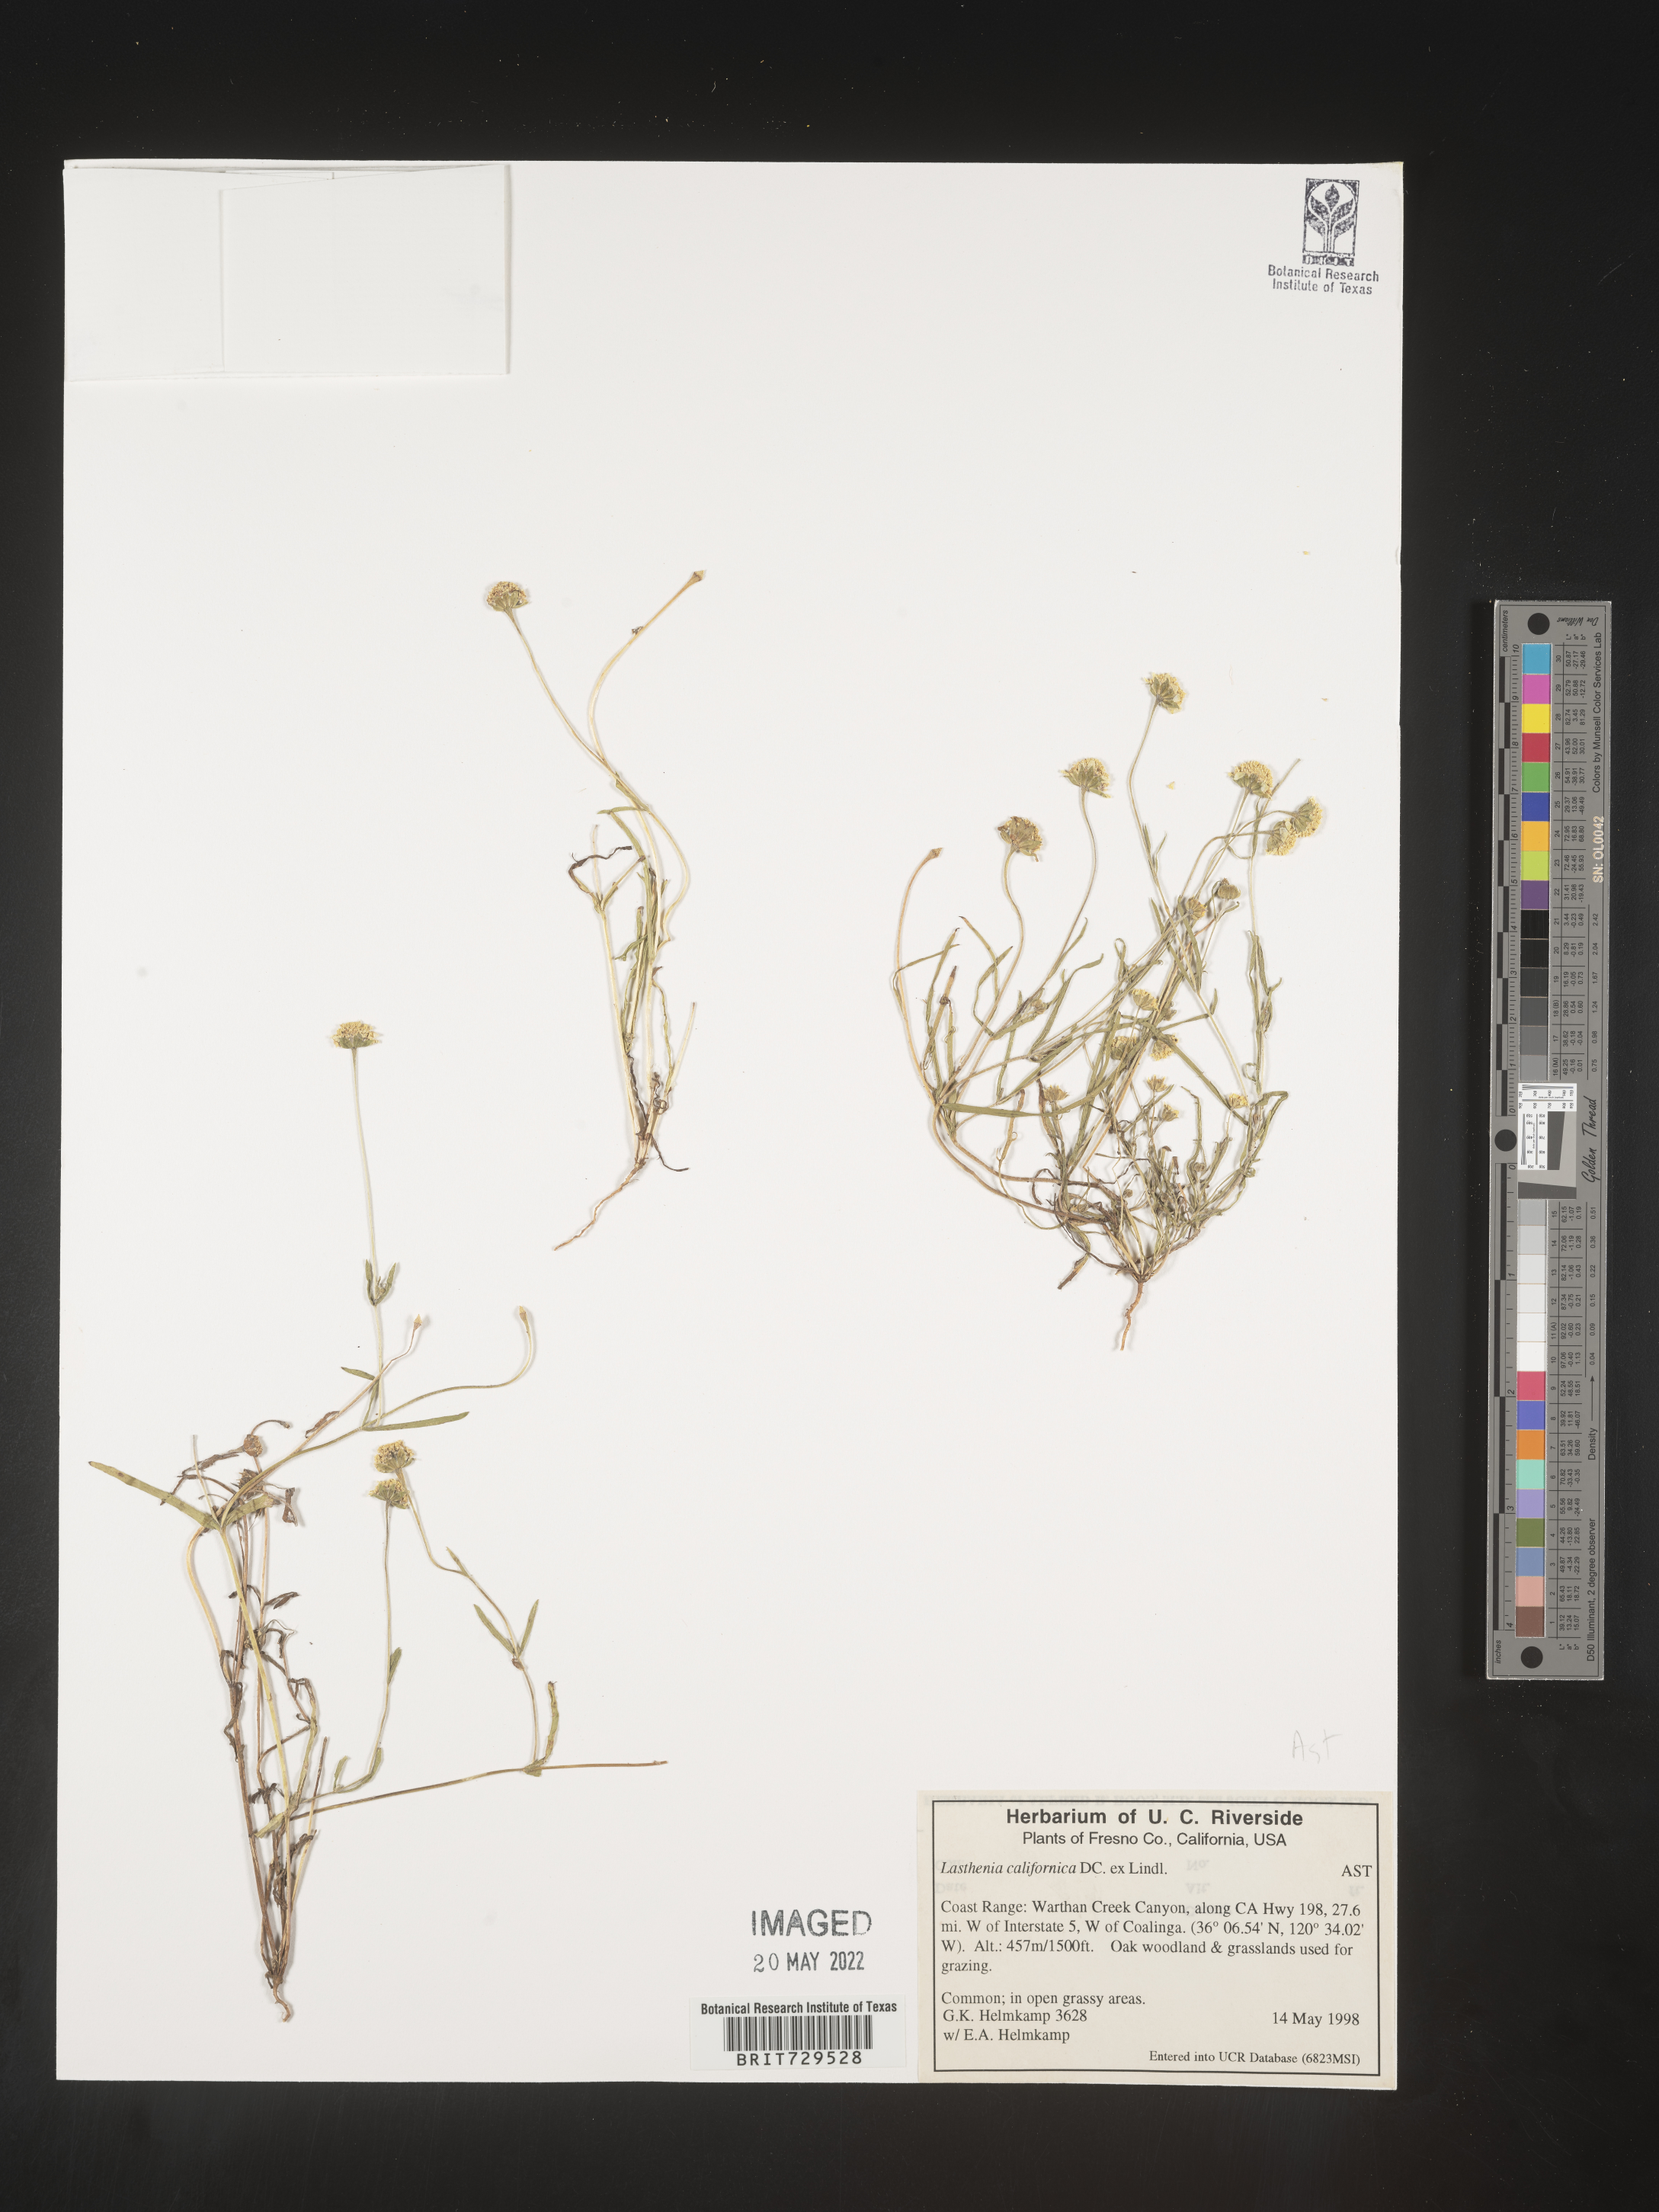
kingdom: Plantae
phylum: Tracheophyta
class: Magnoliopsida
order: Asterales
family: Asteraceae
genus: Lasthenia
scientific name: Lasthenia
